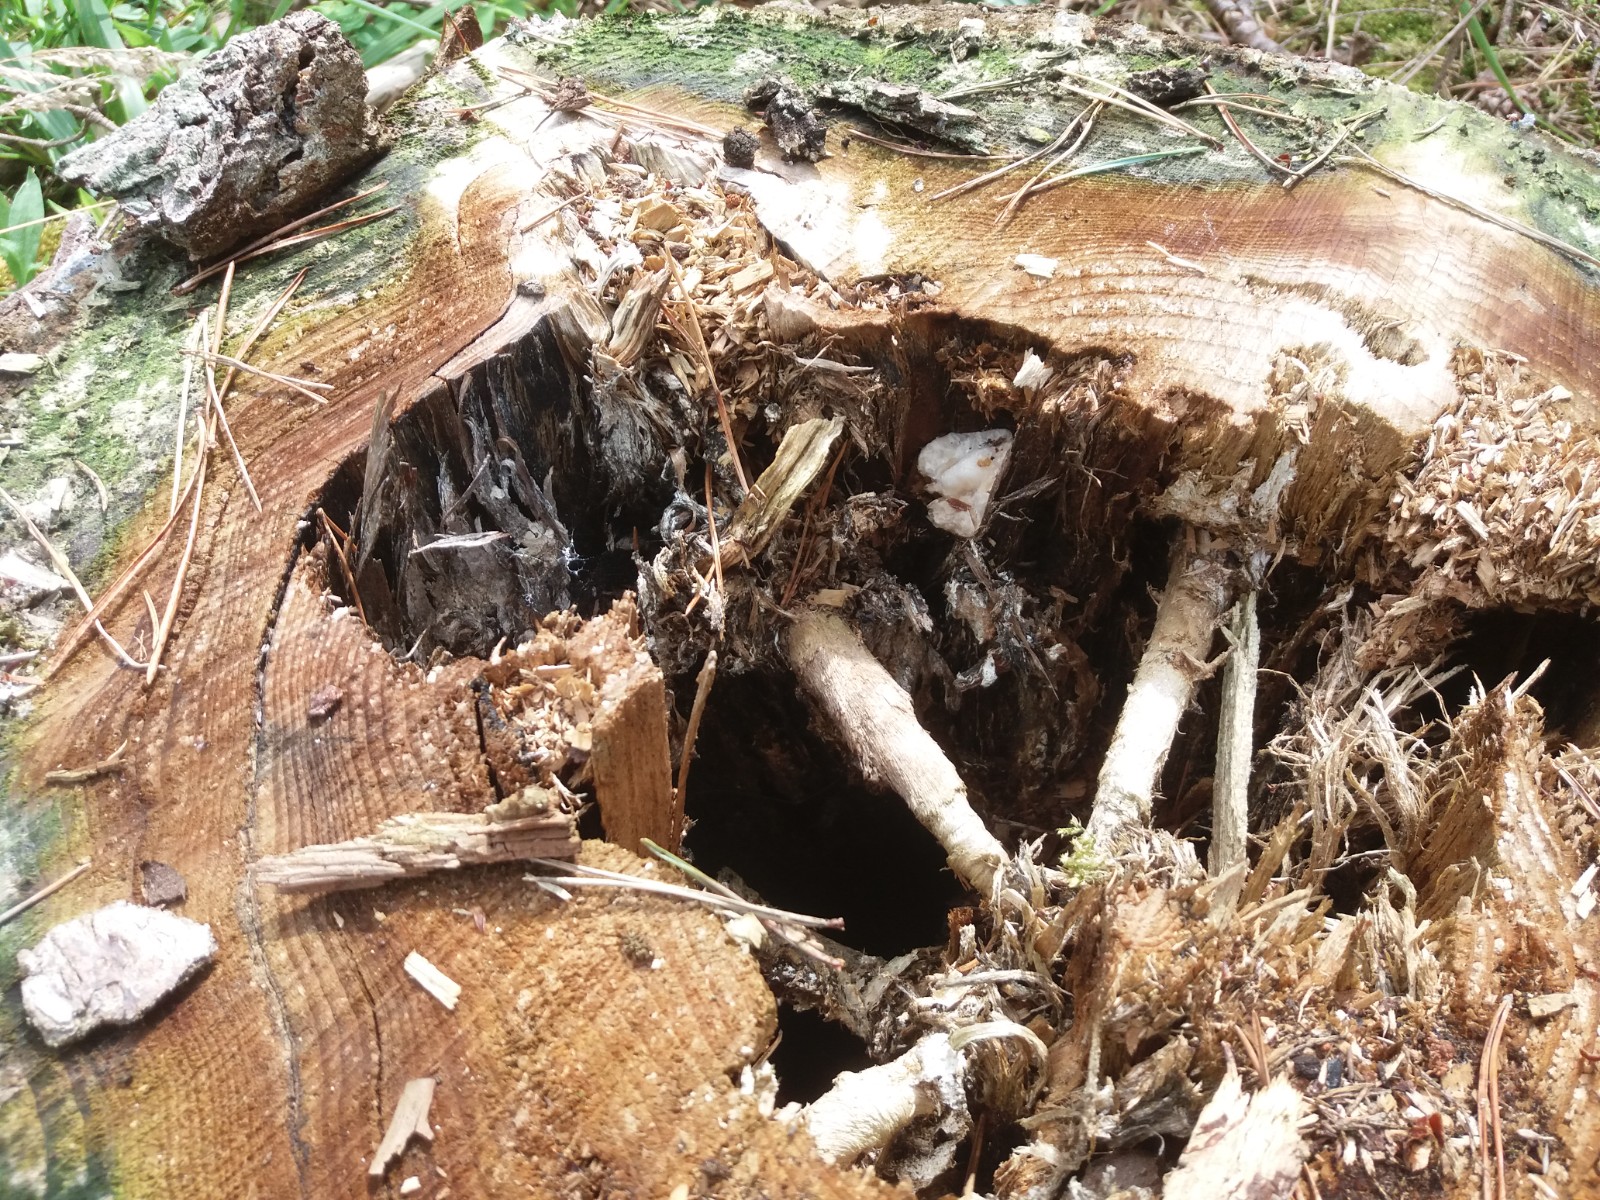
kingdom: Fungi
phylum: Basidiomycota
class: Agaricomycetes
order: Agaricales
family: Pluteaceae
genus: Volvariella
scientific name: Volvariella bombycina
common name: silkehåret posesvamp
